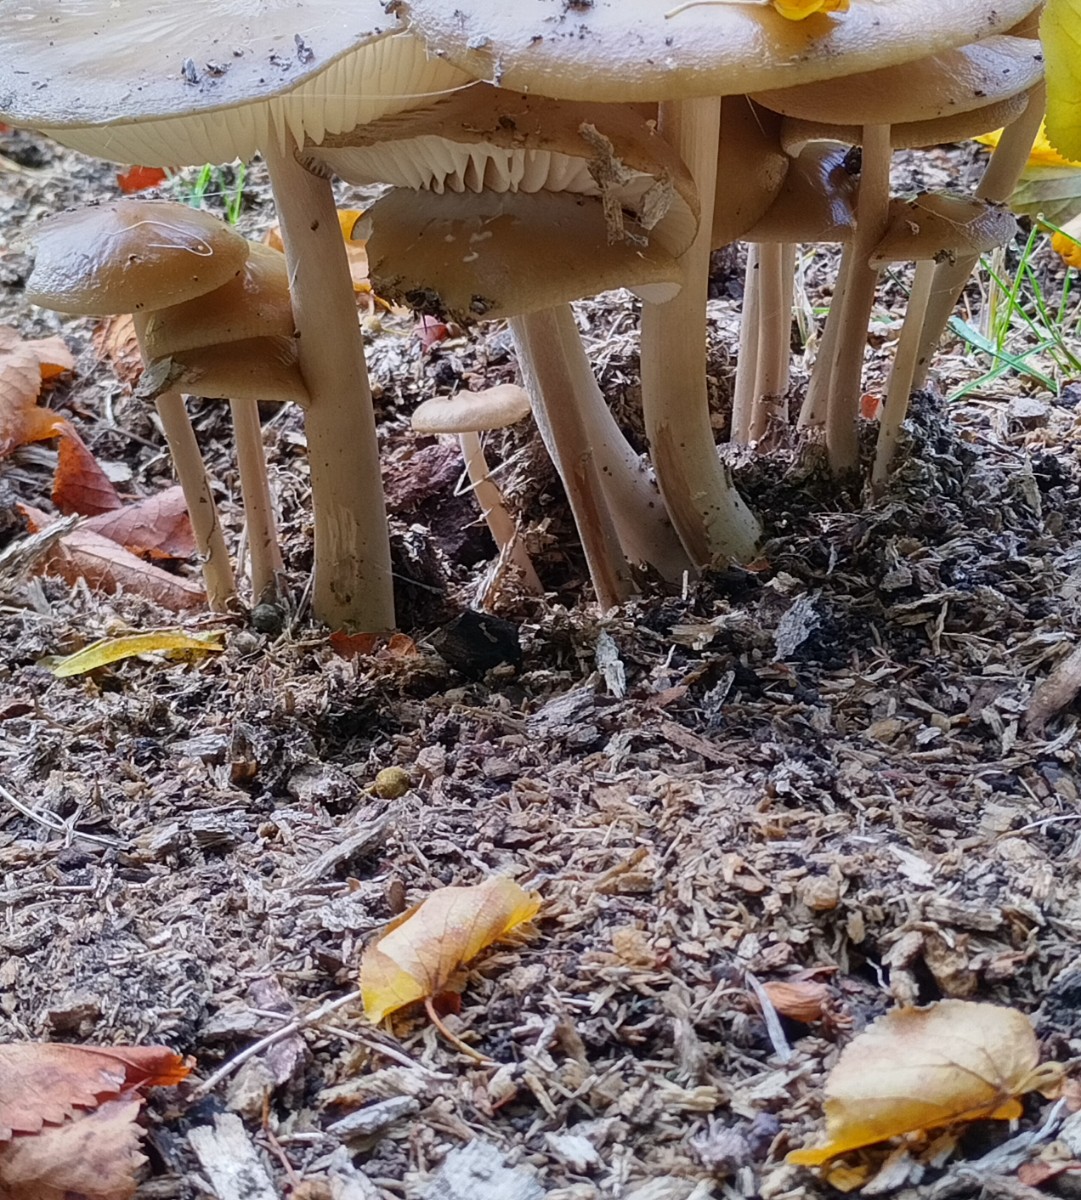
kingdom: Fungi
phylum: Basidiomycota
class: Agaricomycetes
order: Agaricales
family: Physalacriaceae
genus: Hymenopellis
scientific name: Hymenopellis radicata
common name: almindelig pælerodshat
